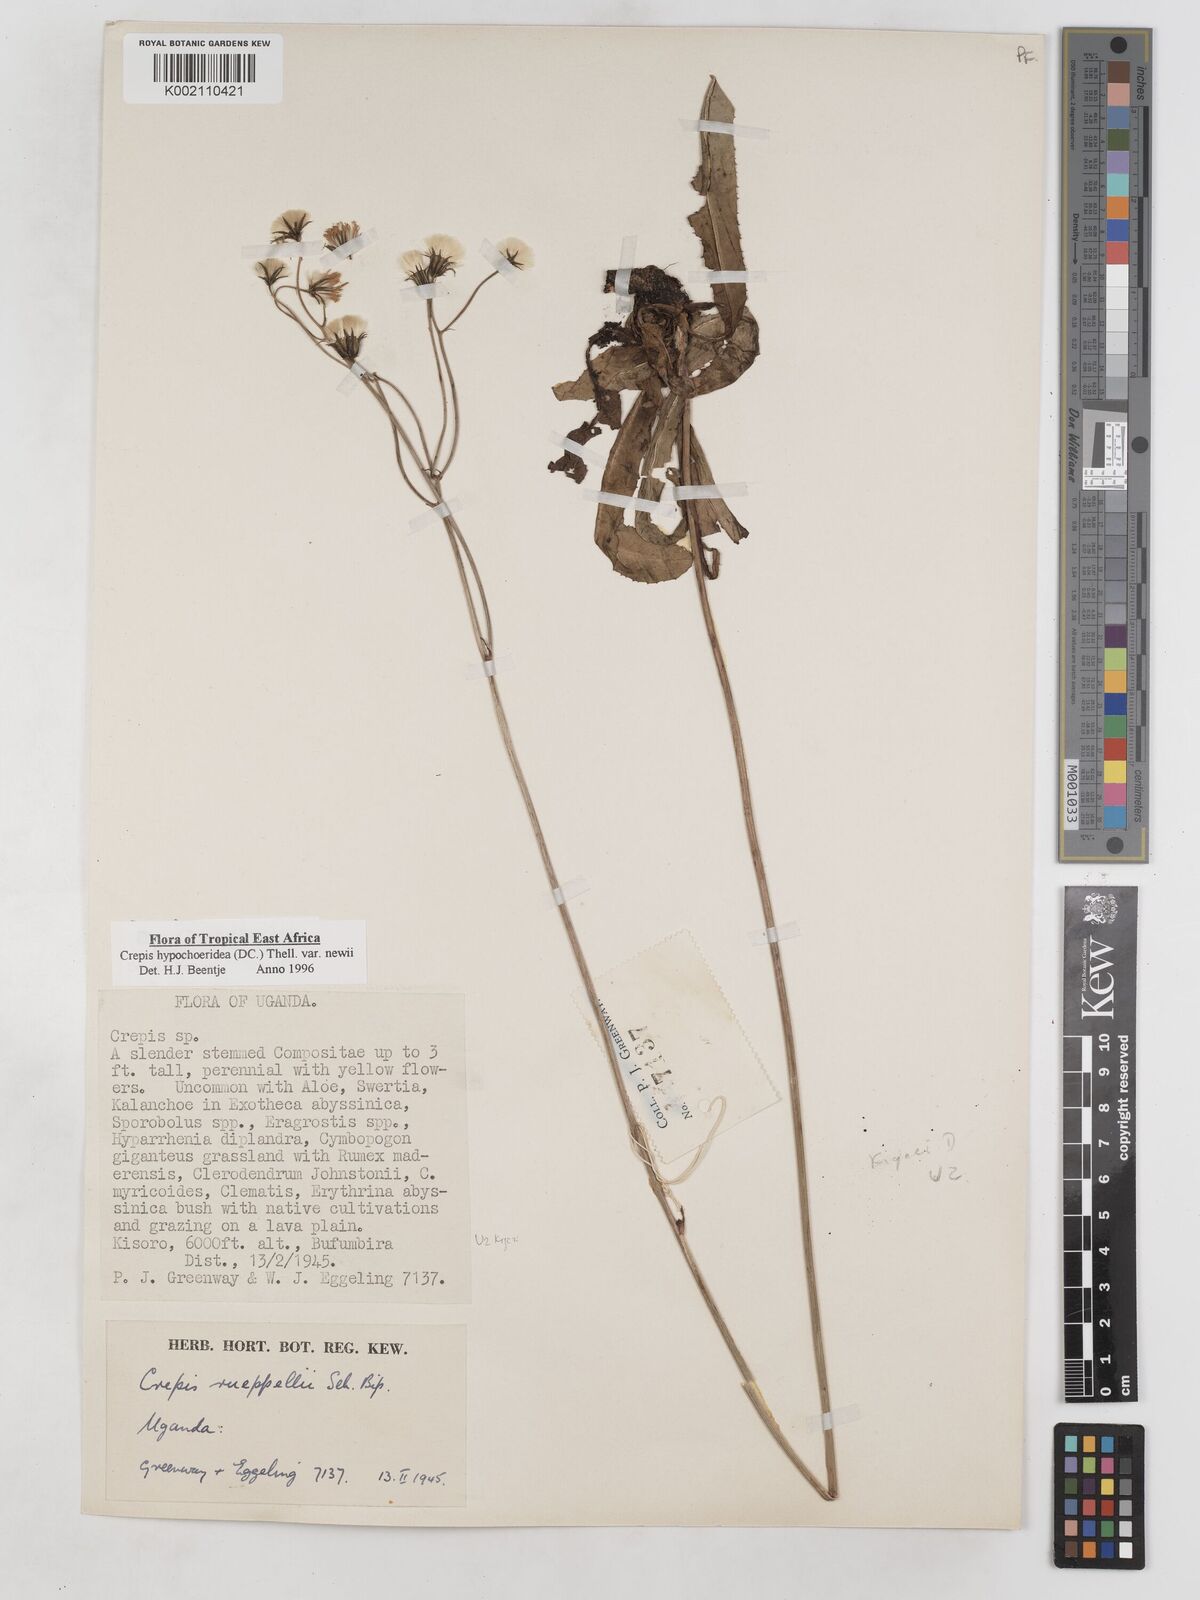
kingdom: Plantae
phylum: Tracheophyta
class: Magnoliopsida
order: Asterales
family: Asteraceae
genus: Crepis
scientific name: Crepis hypochoeridea
